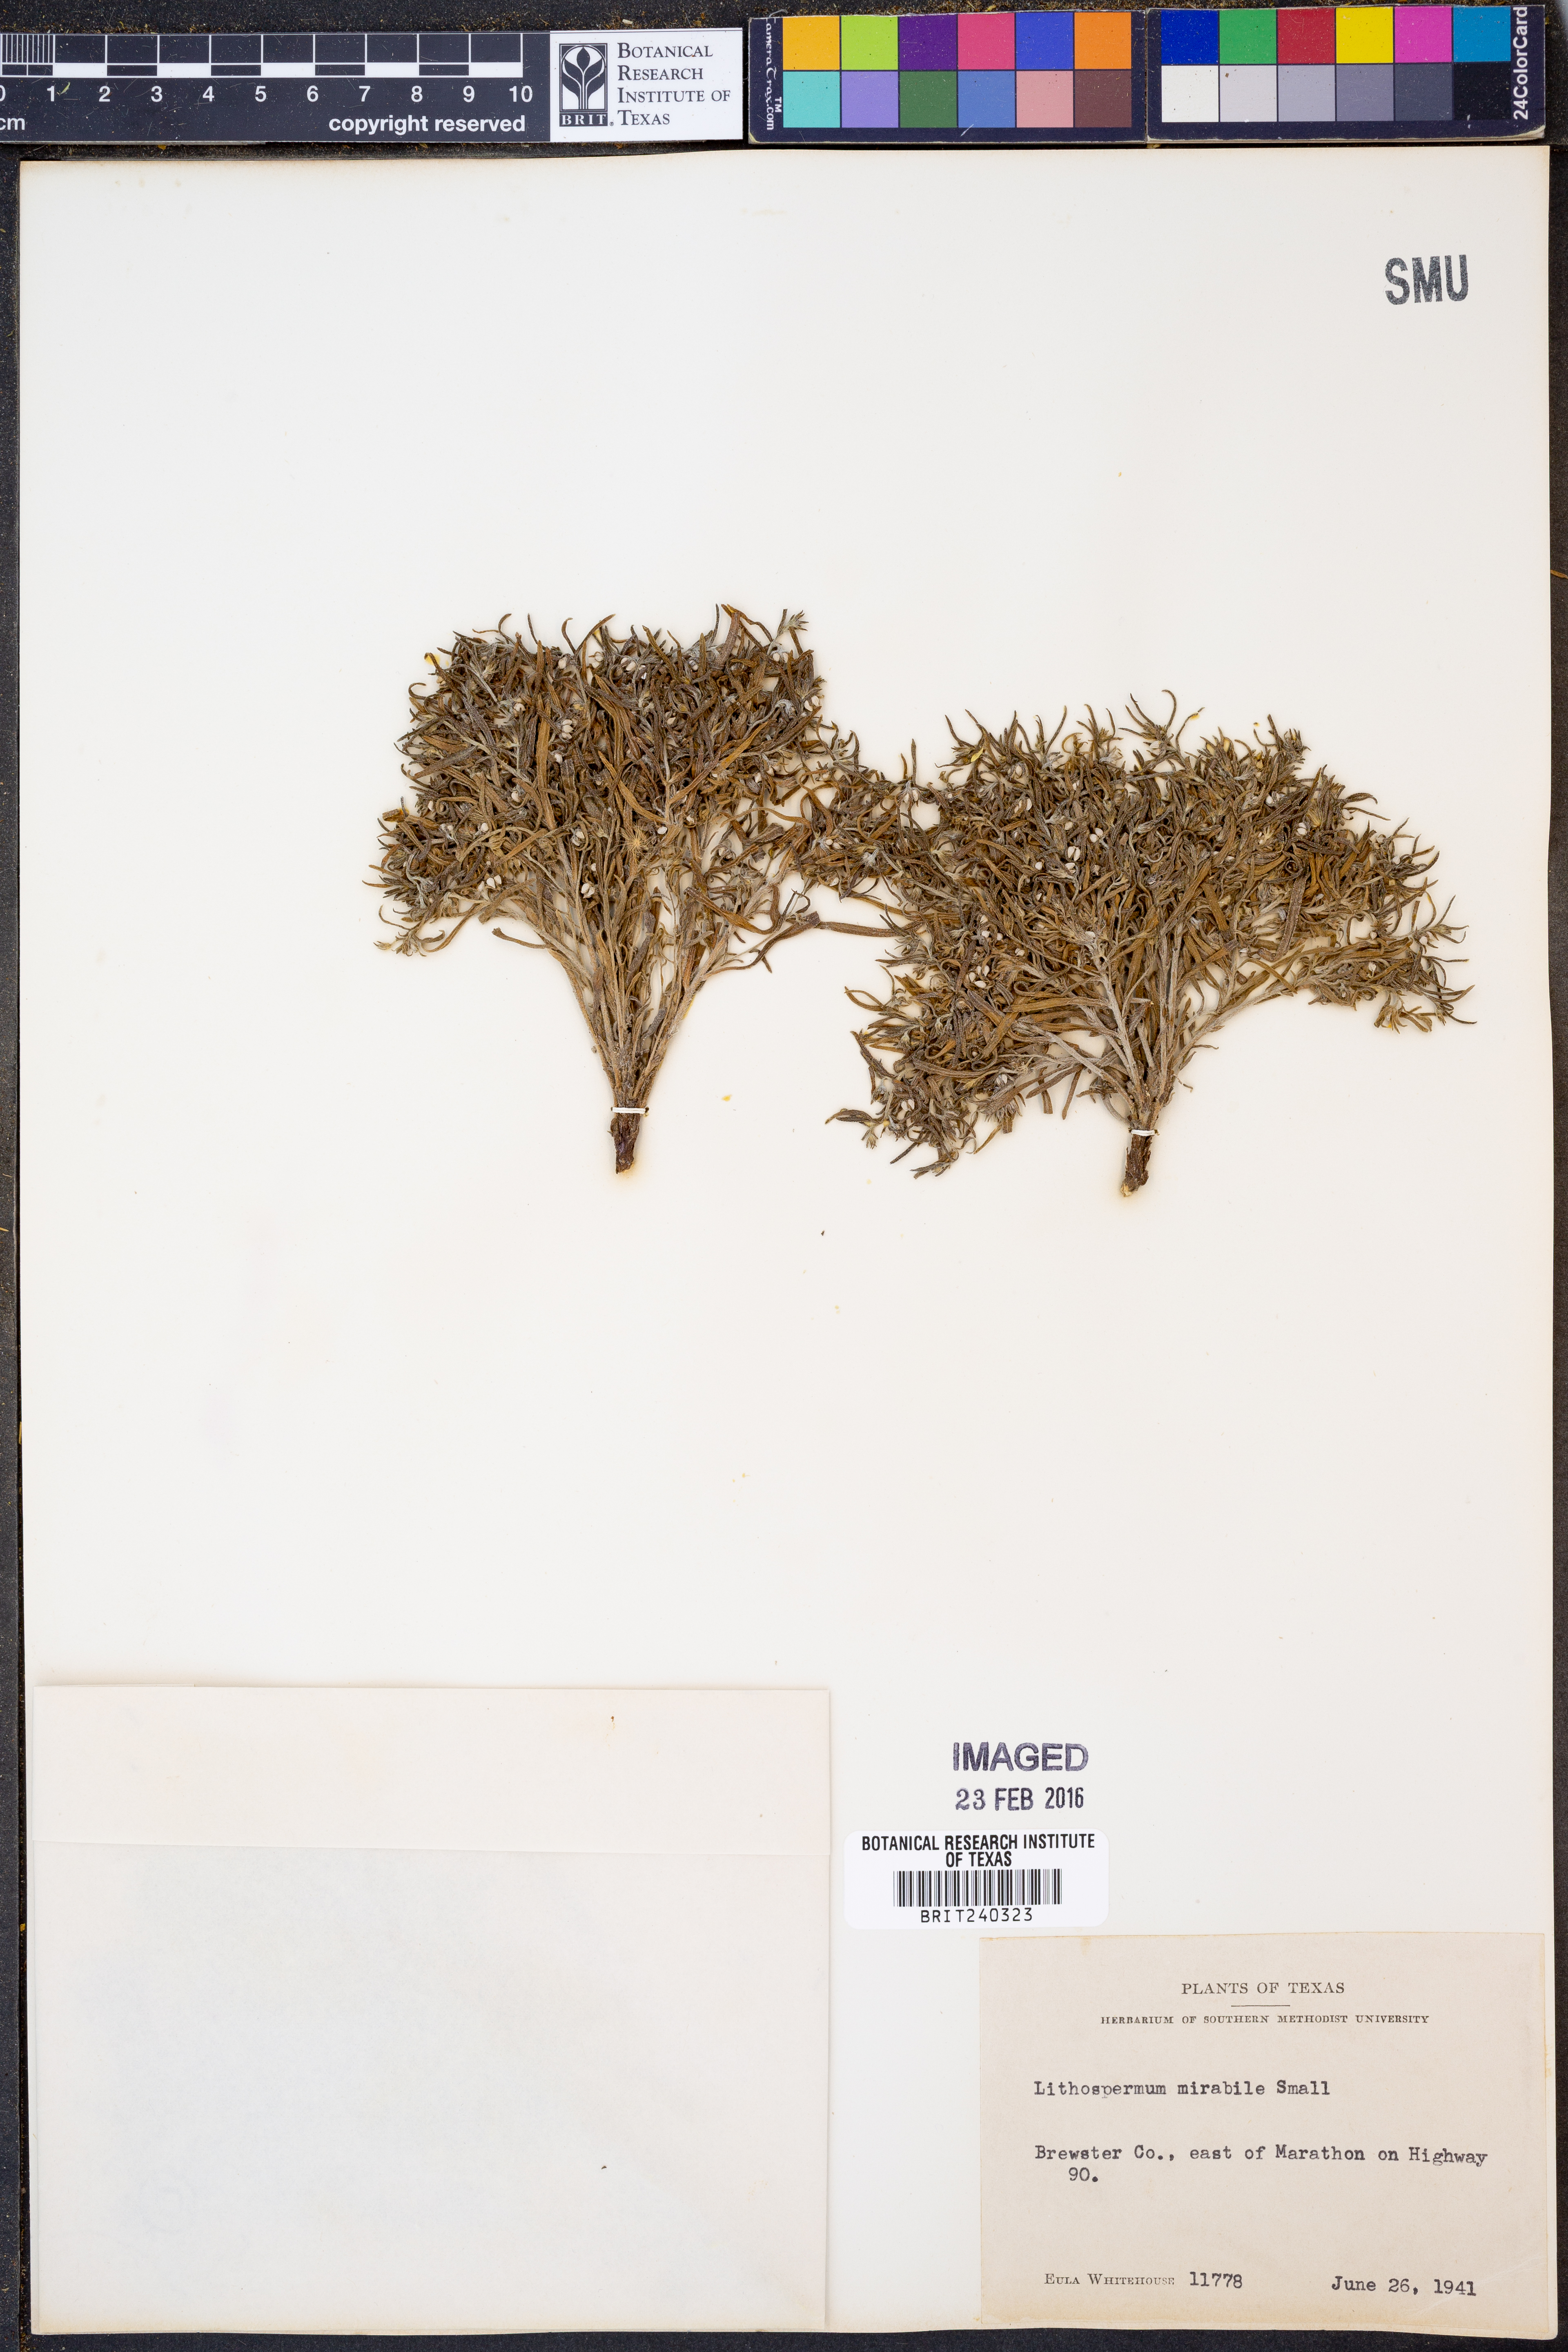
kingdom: Plantae
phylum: Tracheophyta
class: Magnoliopsida
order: Boraginales
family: Boraginaceae
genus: Lithospermum
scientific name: Lithospermum mirabile
